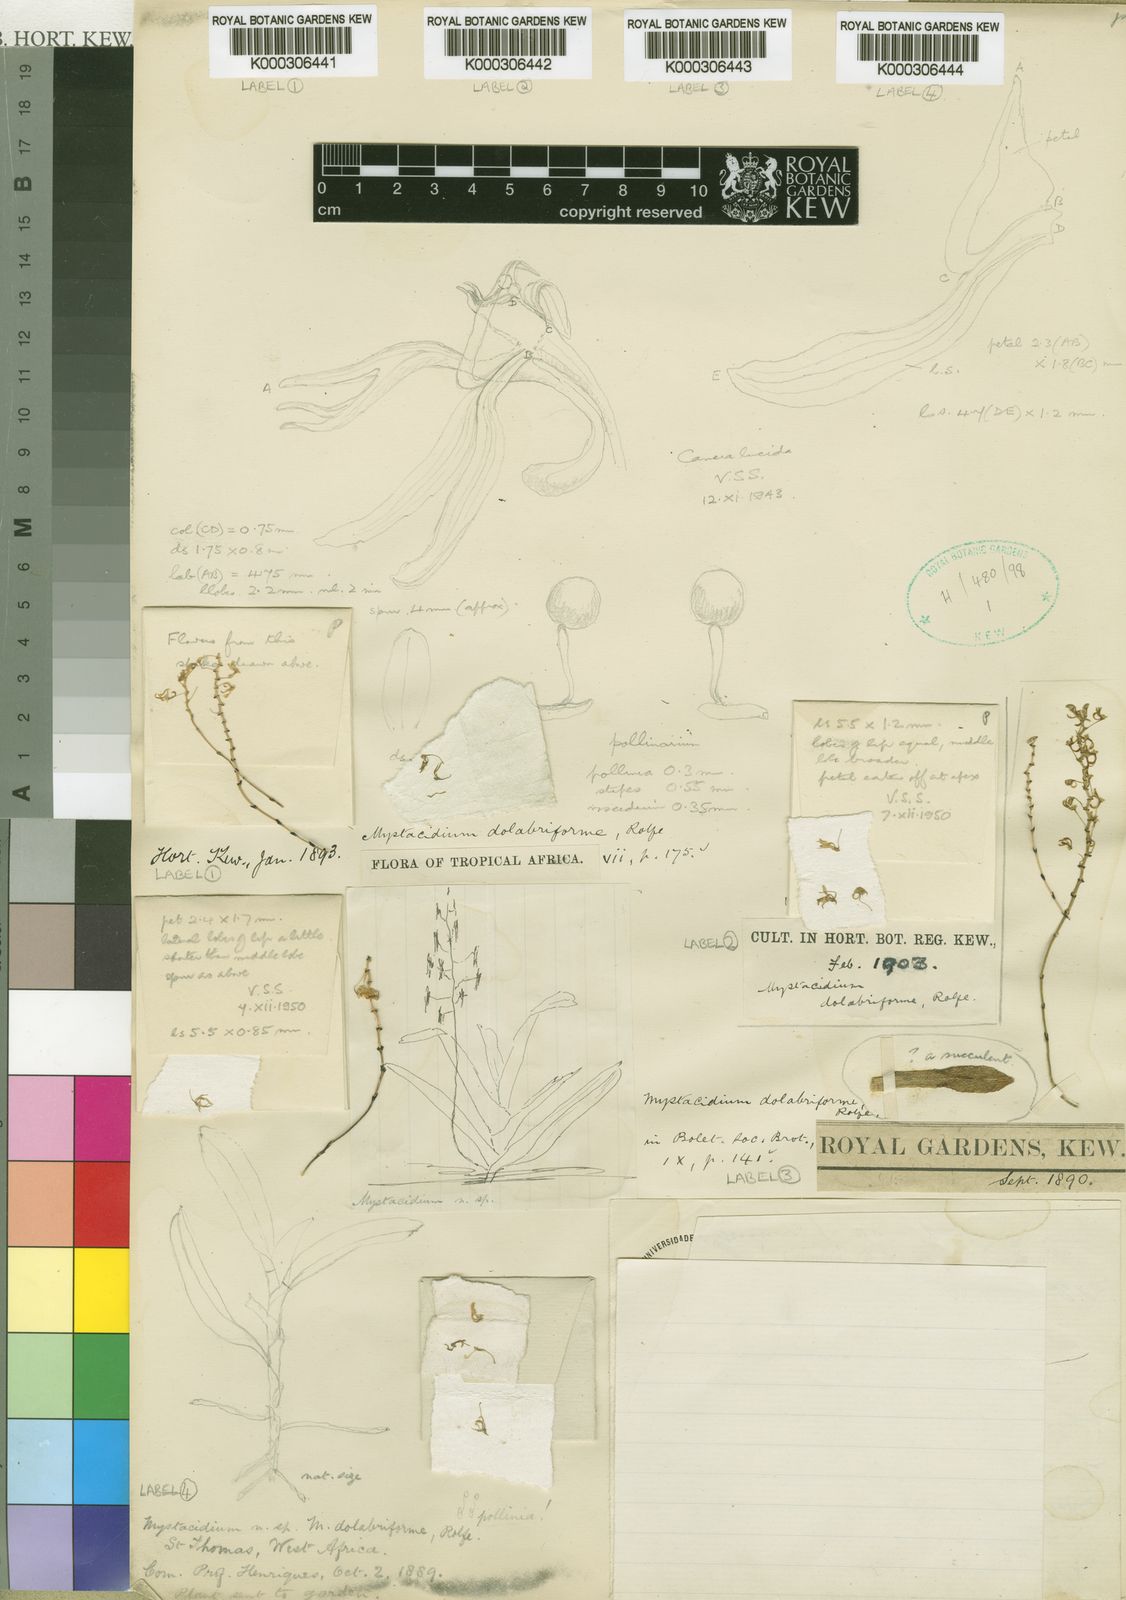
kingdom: Plantae
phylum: Tracheophyta
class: Liliopsida
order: Asparagales
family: Orchidaceae
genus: Angraecopsis
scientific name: Angraecopsis dolabriformis
